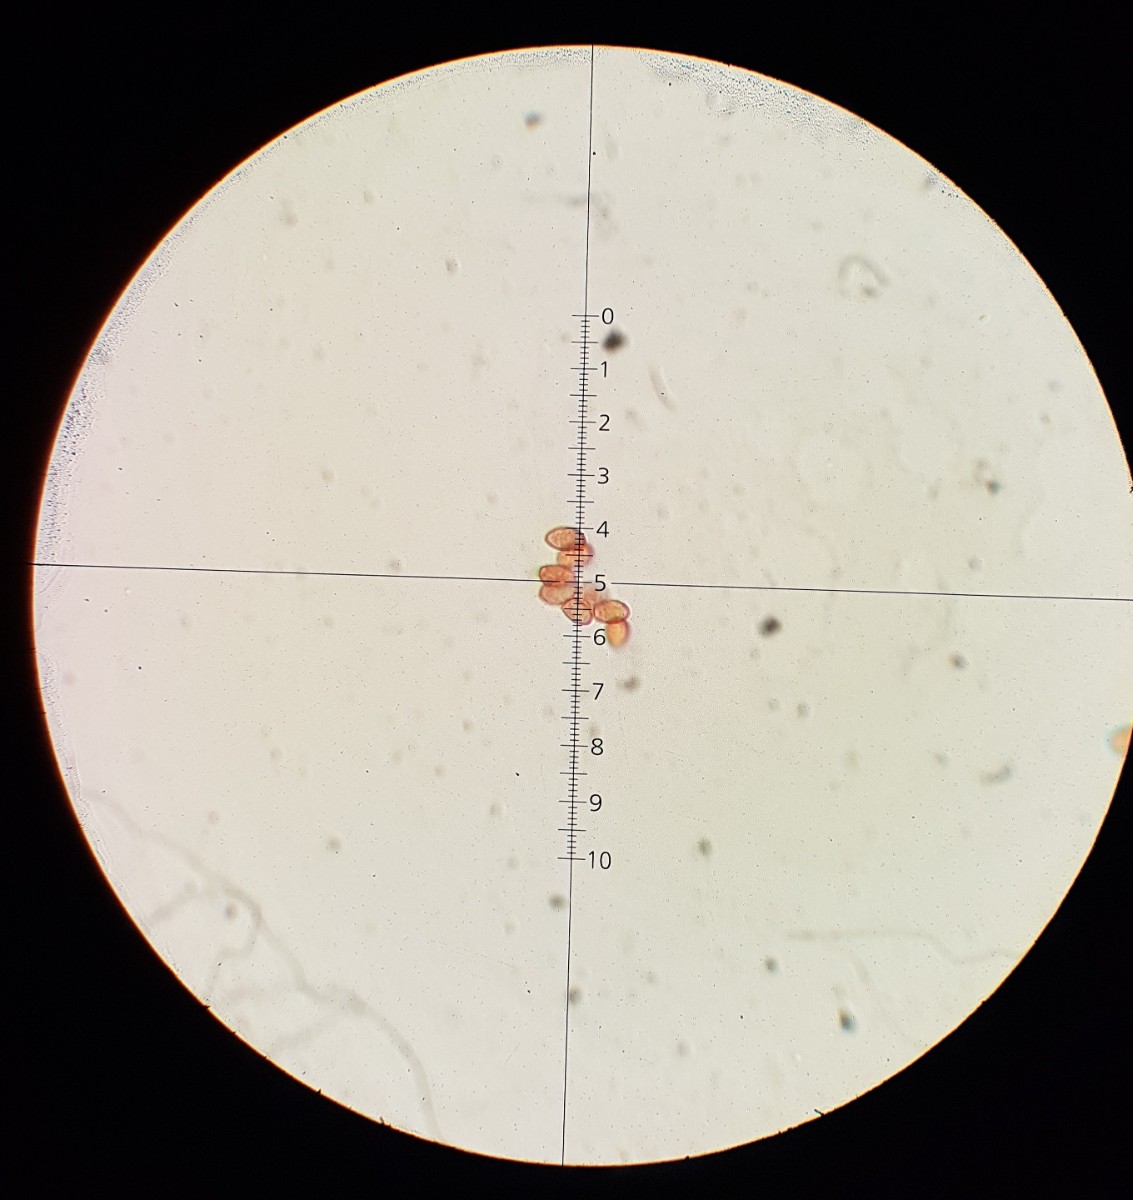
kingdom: Fungi
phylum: Basidiomycota
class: Agaricomycetes
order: Agaricales
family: Cortinariaceae
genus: Cortinarius
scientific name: Cortinarius
